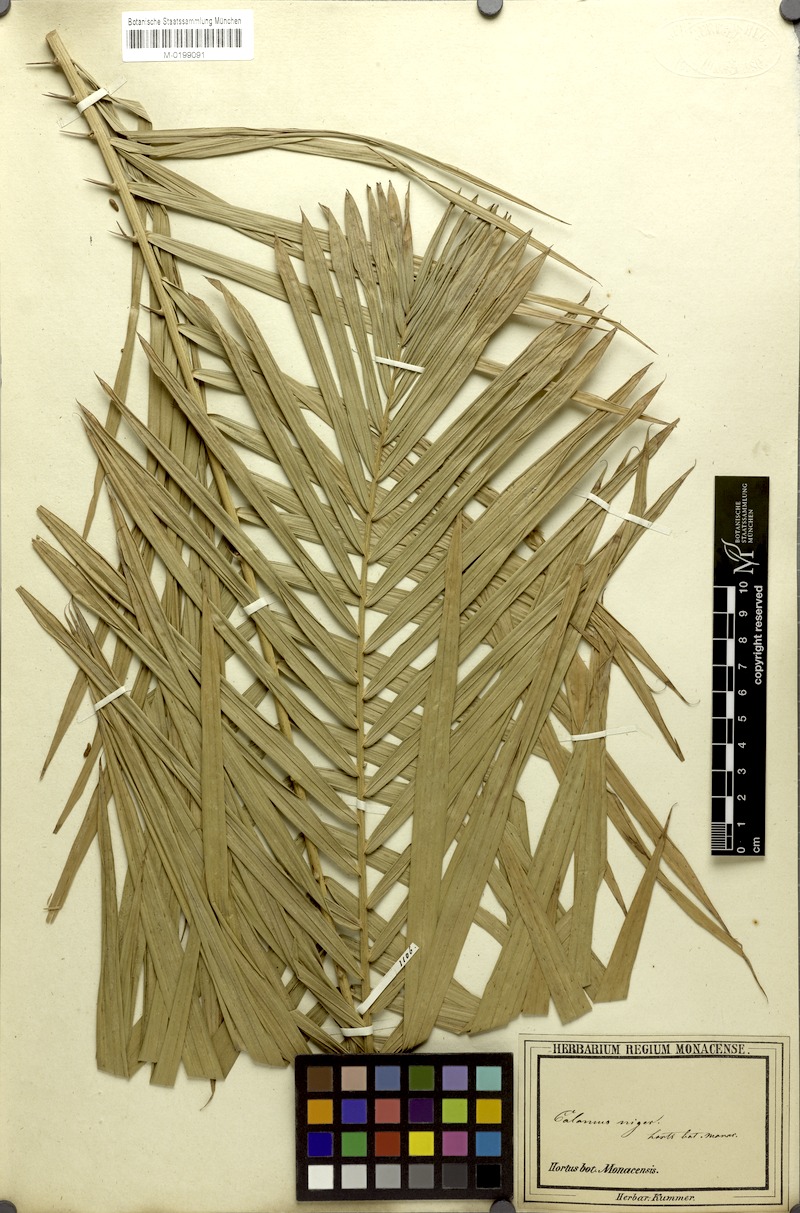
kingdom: Plantae
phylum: Tracheophyta
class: Liliopsida
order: Arecales
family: Arecaceae
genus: Calamus
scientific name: Calamus niger
